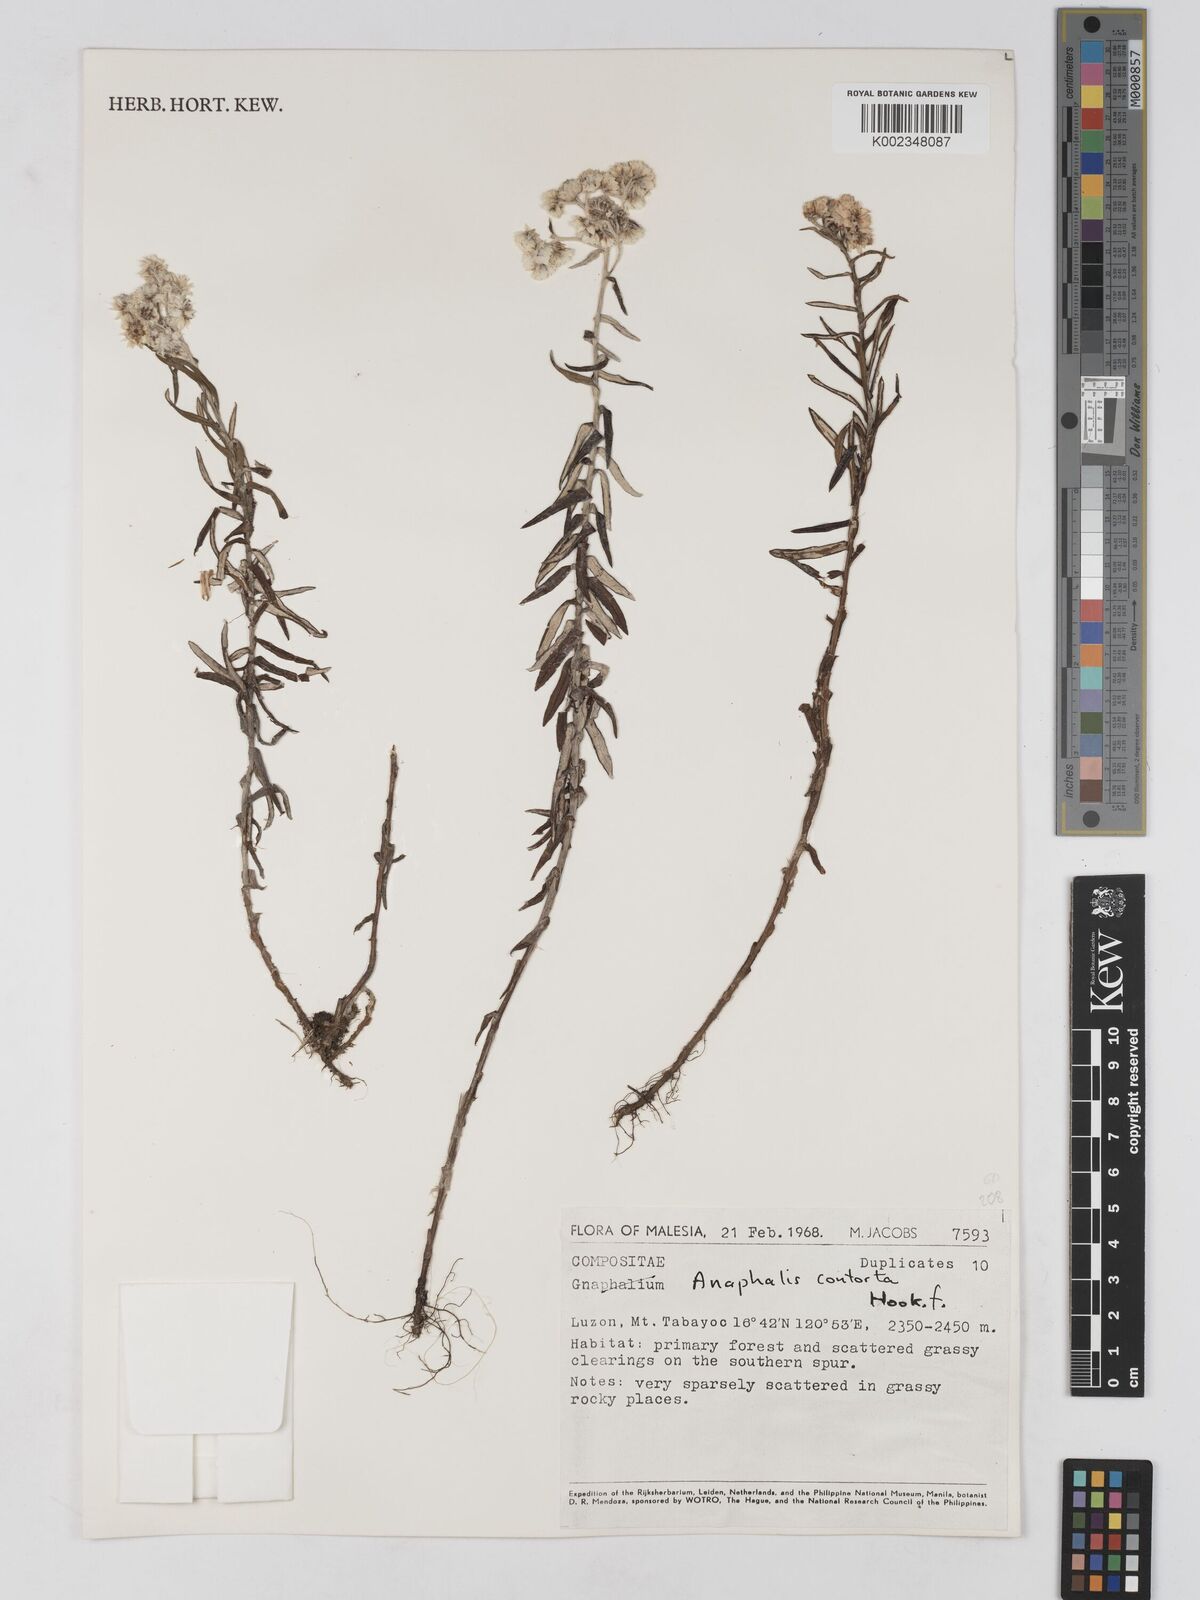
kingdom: Plantae
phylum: Tracheophyta
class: Magnoliopsida
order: Asterales
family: Asteraceae
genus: Anaphalis
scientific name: Anaphalis contorta
